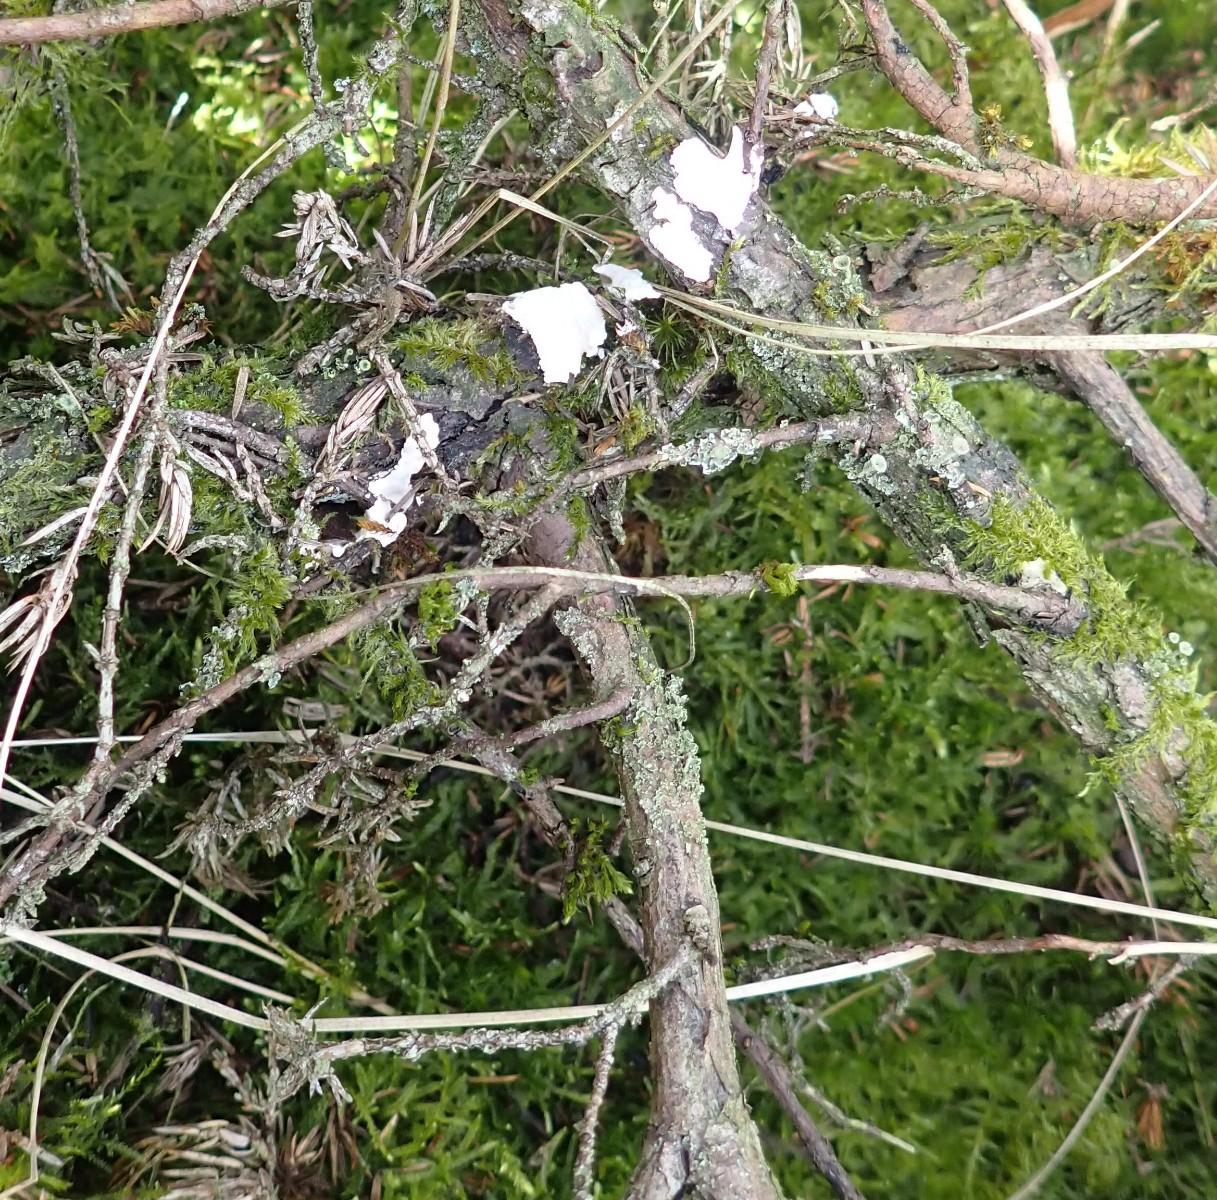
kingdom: Fungi
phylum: Basidiomycota
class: Agaricomycetes
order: Russulales
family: Echinodontiaceae
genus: Amylostereum
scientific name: Amylostereum laevigatum
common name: ene-lædersvamp
